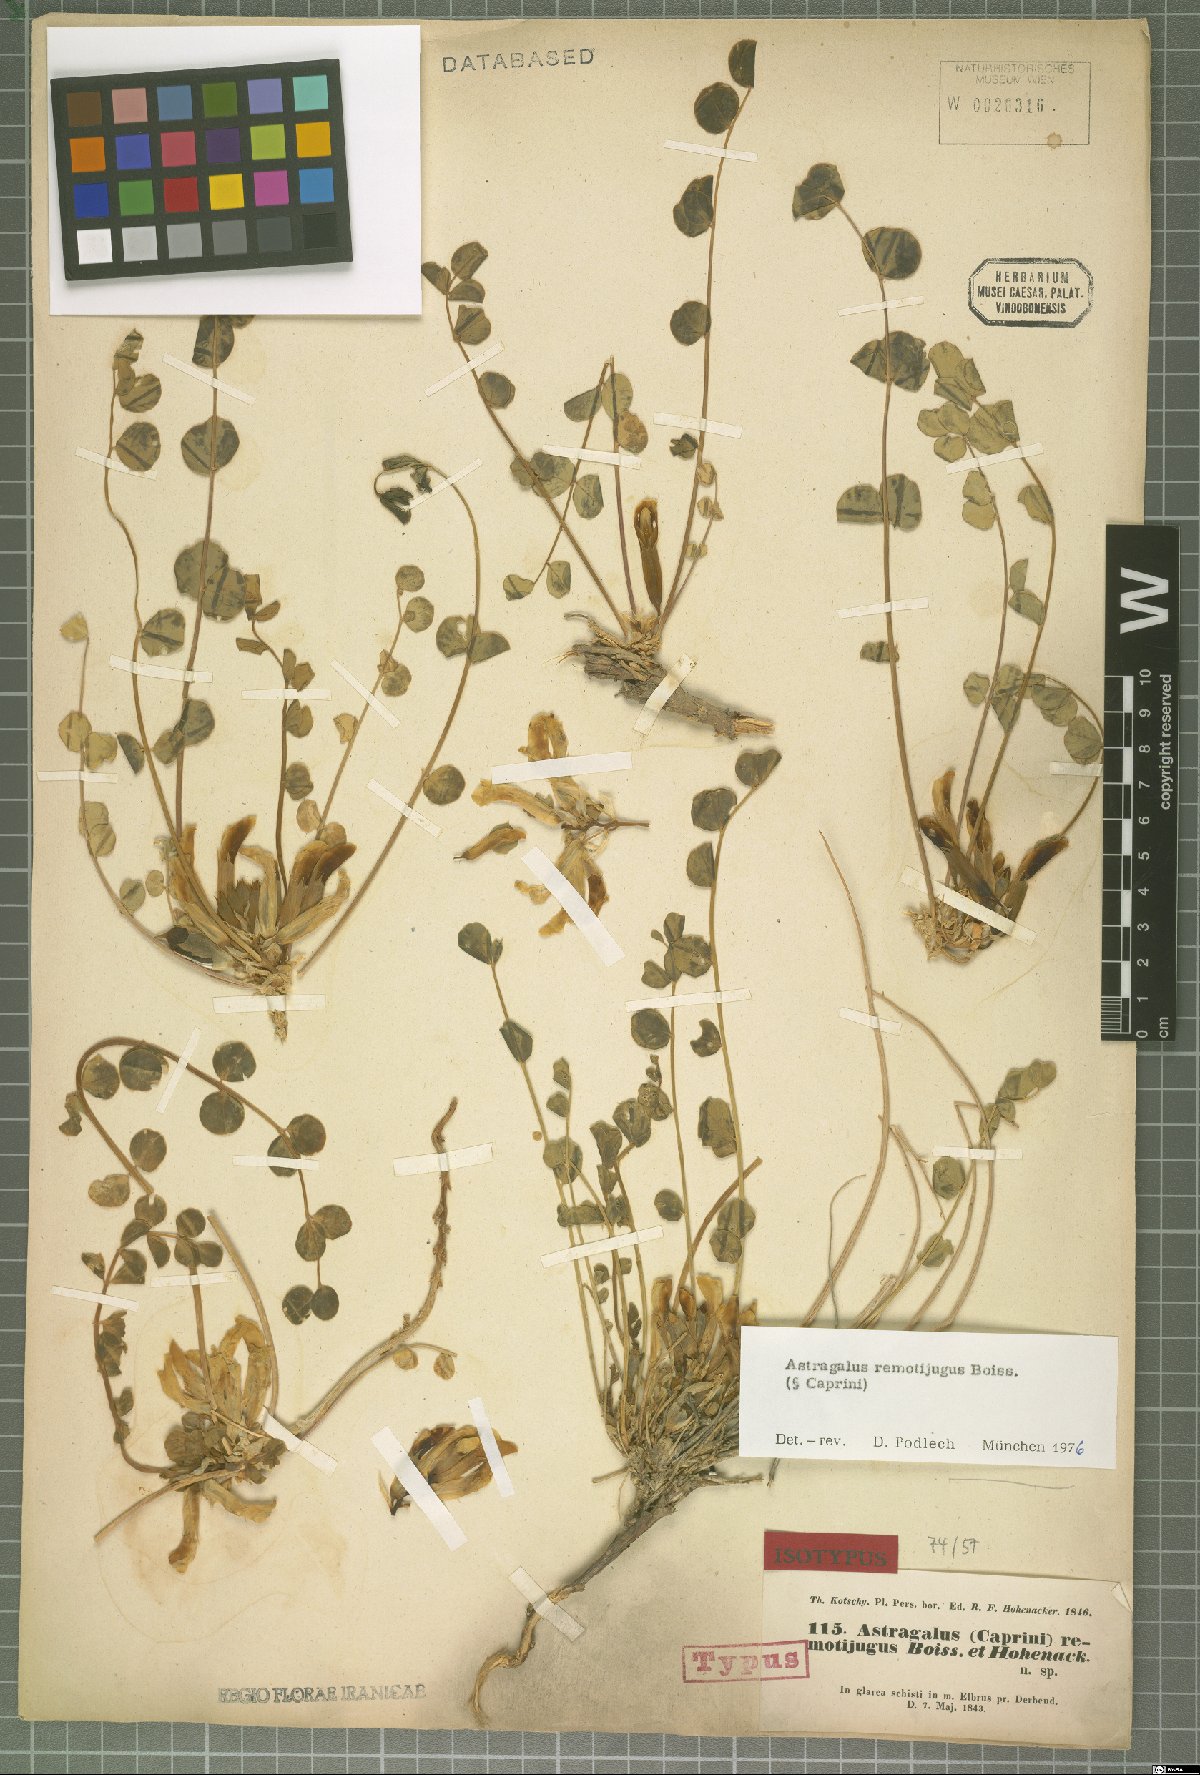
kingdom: Plantae
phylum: Tracheophyta
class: Magnoliopsida
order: Fabales
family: Fabaceae
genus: Astragalus
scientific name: Astragalus remotijugus
